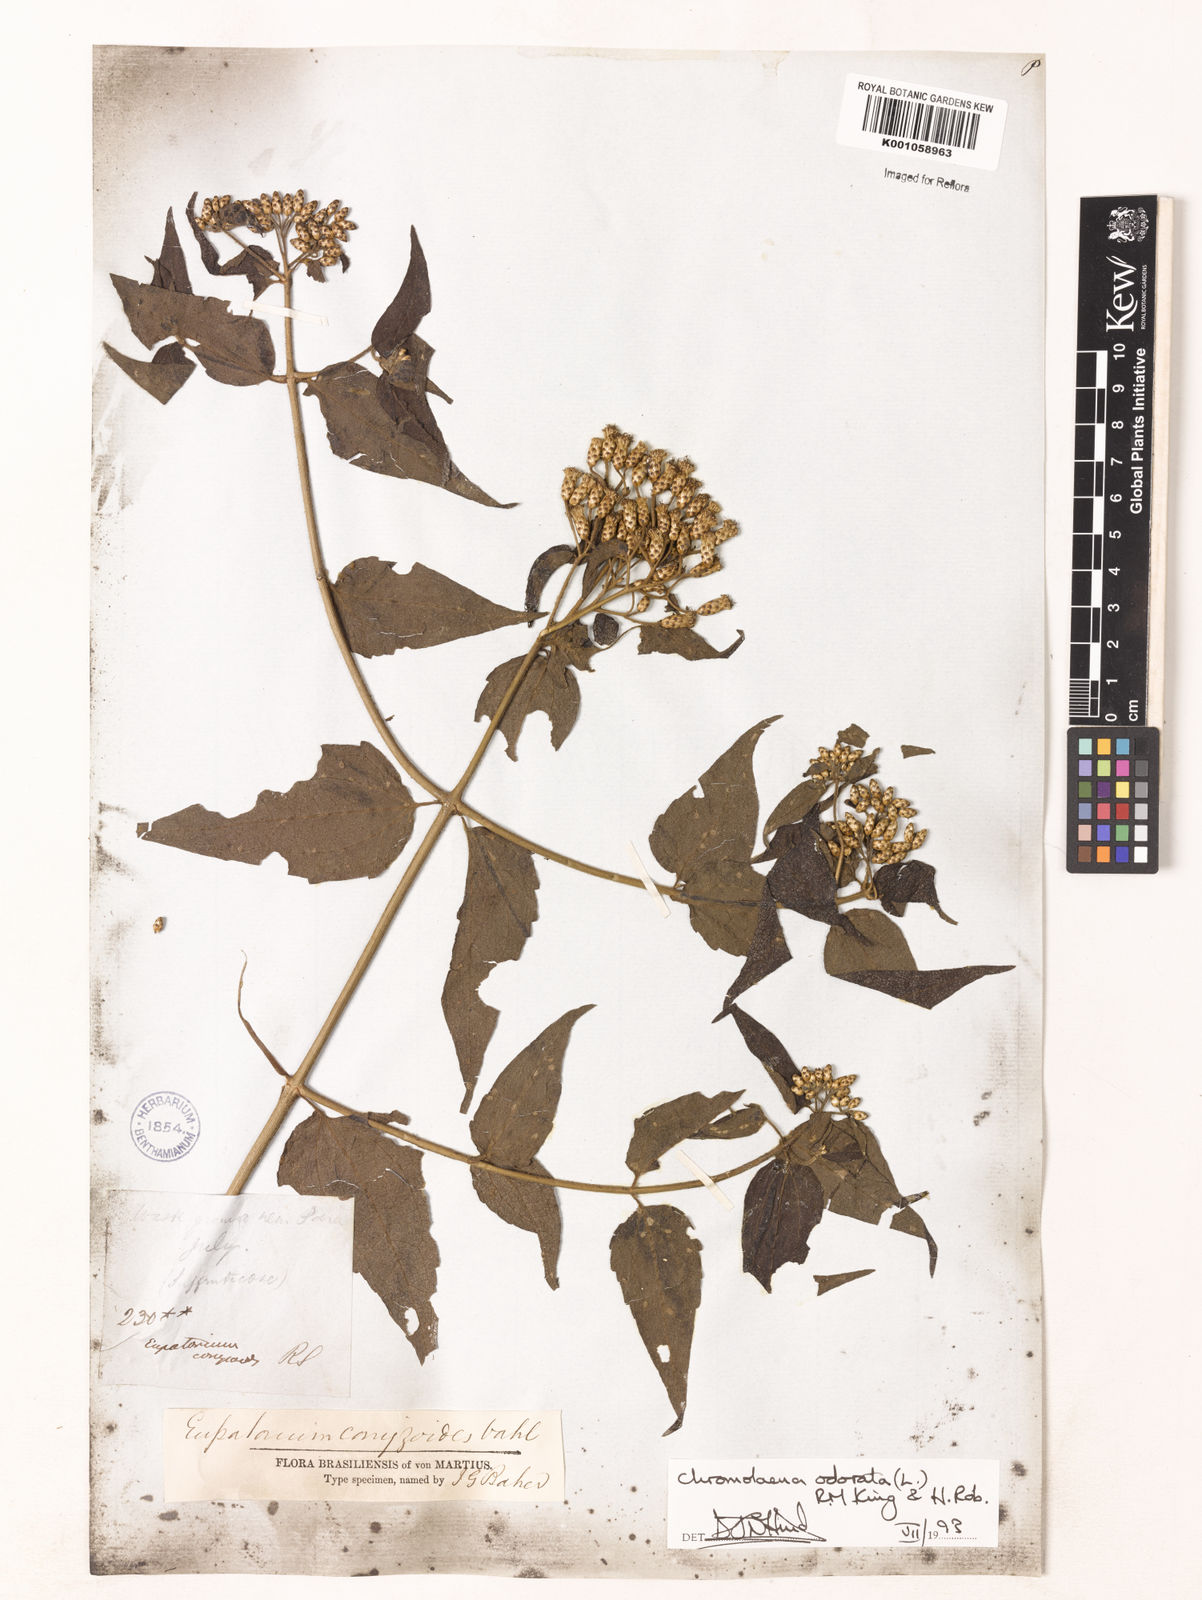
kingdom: Plantae
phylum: Tracheophyta
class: Magnoliopsida
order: Asterales
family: Asteraceae
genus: Chromolaena
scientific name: Chromolaena odorata
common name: Siamweed
